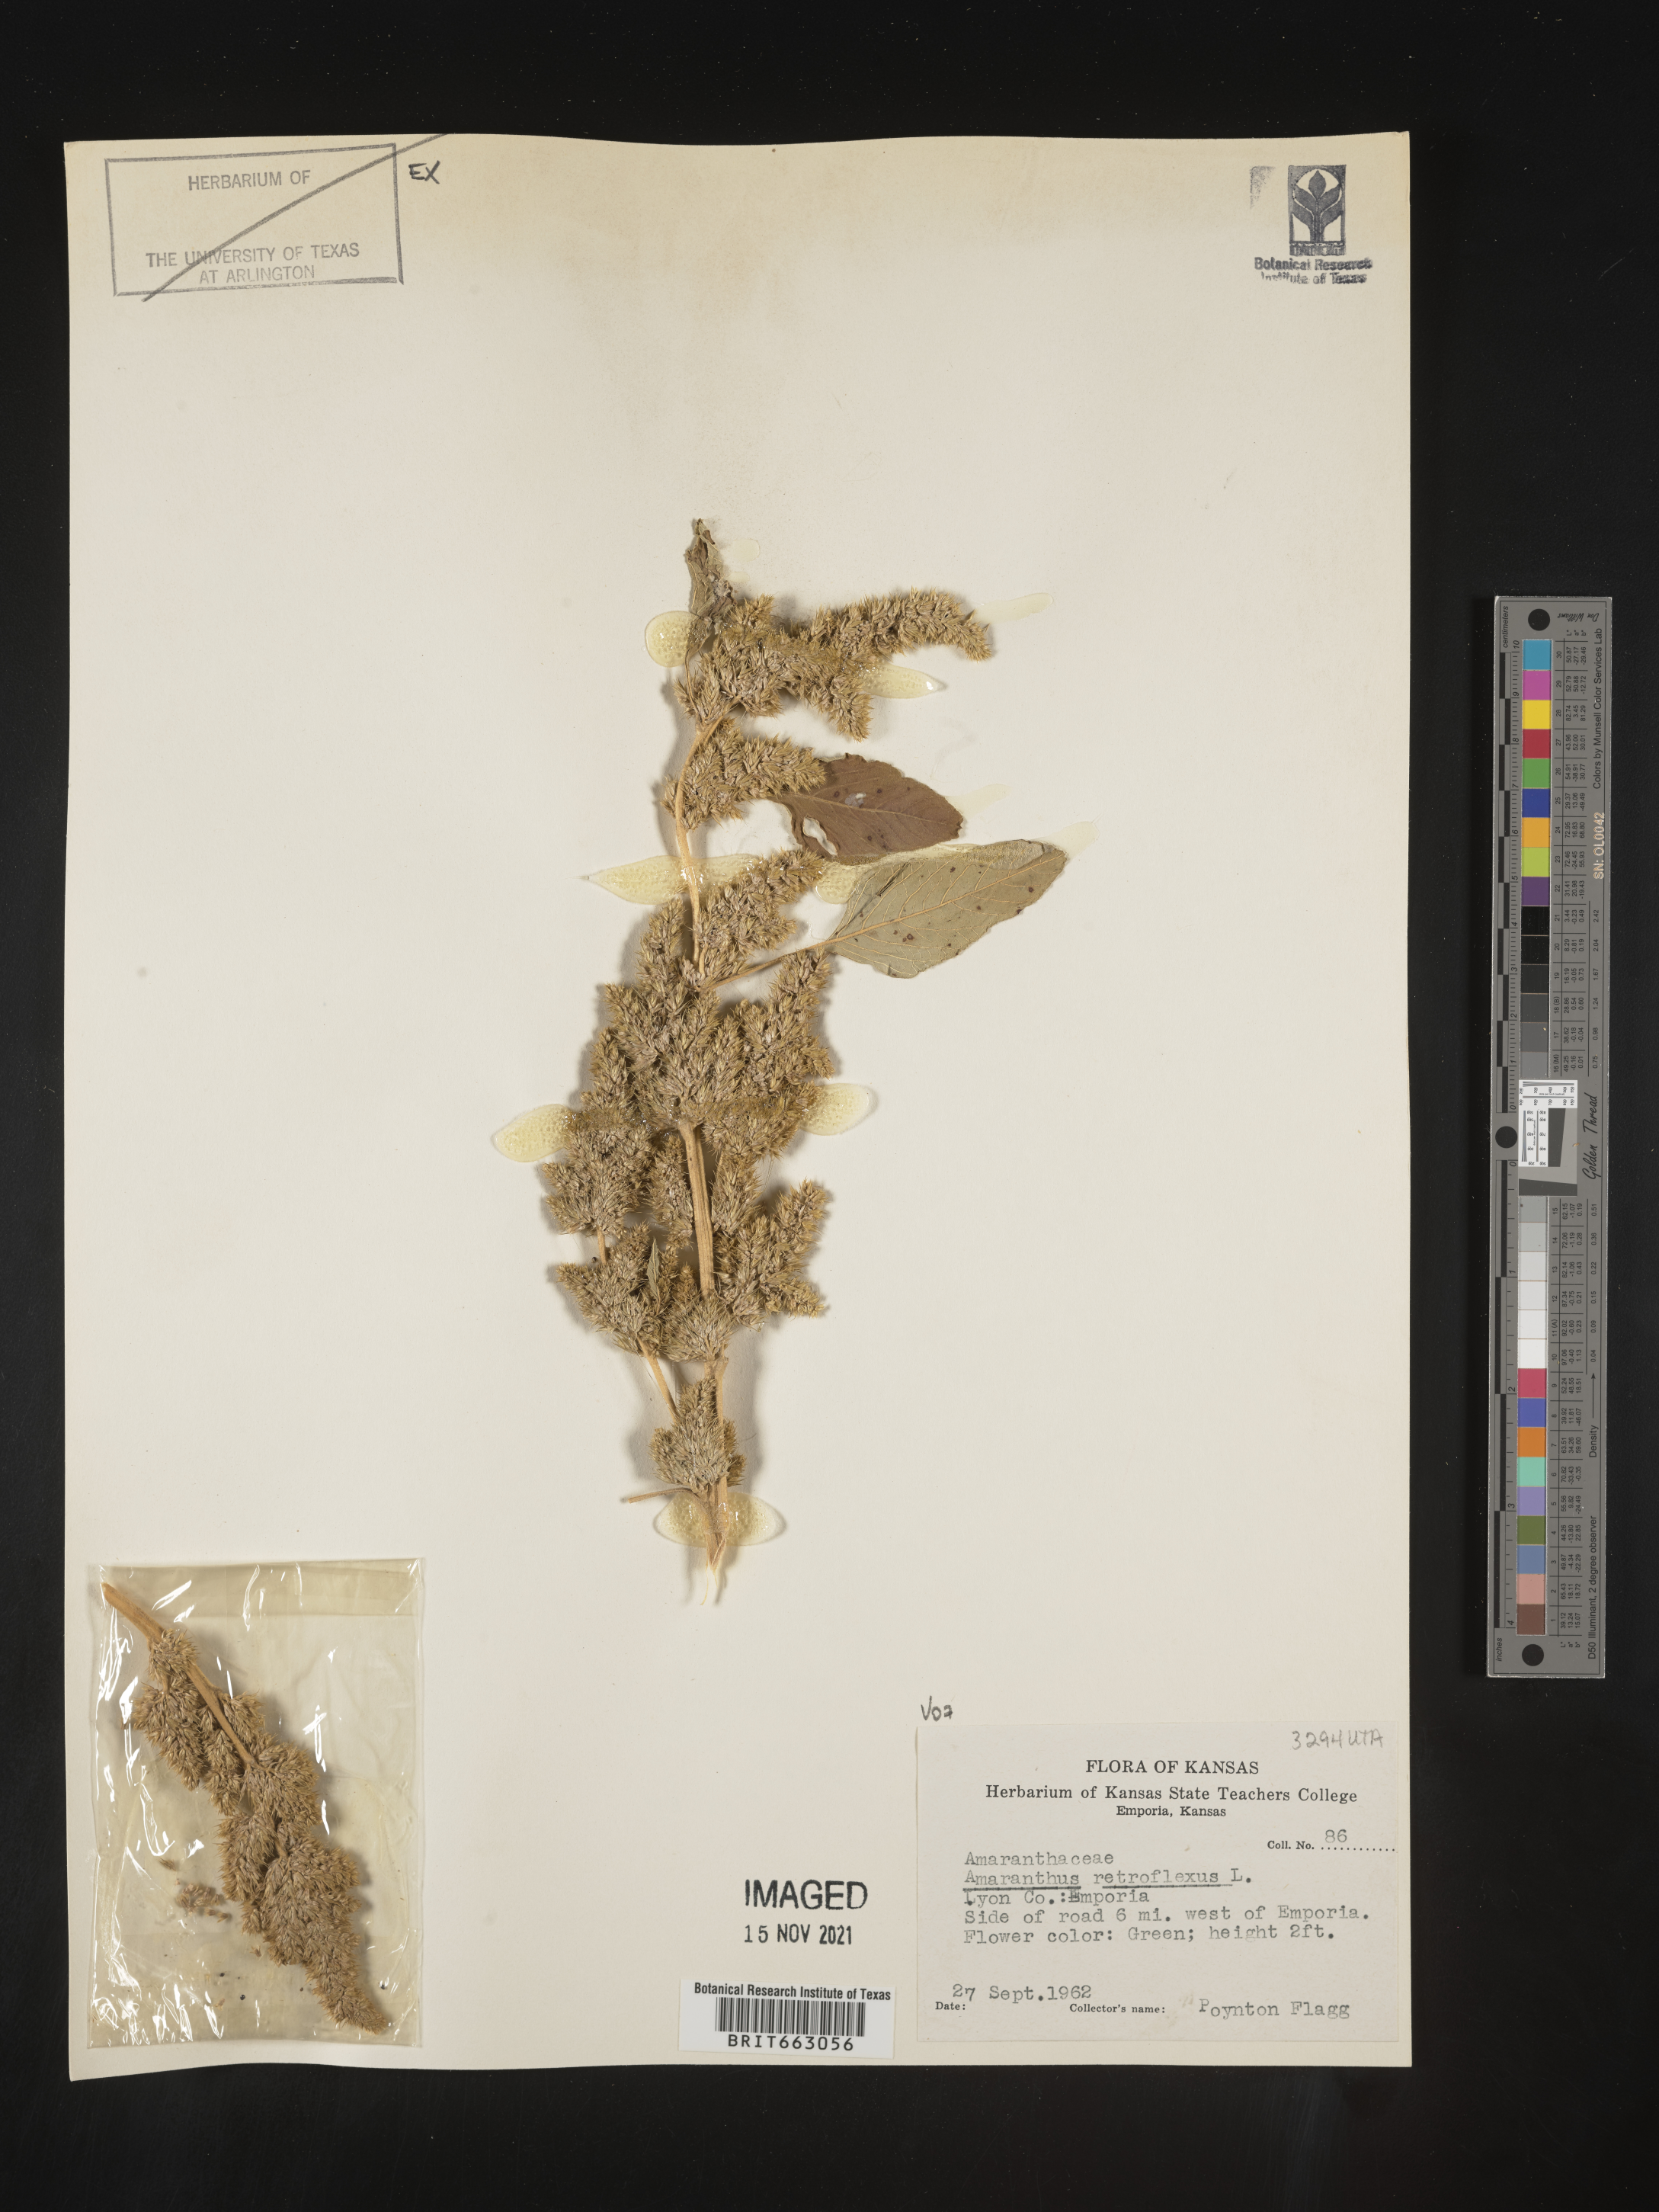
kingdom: Plantae
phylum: Tracheophyta
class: Magnoliopsida
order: Caryophyllales
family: Amaranthaceae
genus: Amaranthus
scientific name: Amaranthus retroflexus
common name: Redroot amaranth
